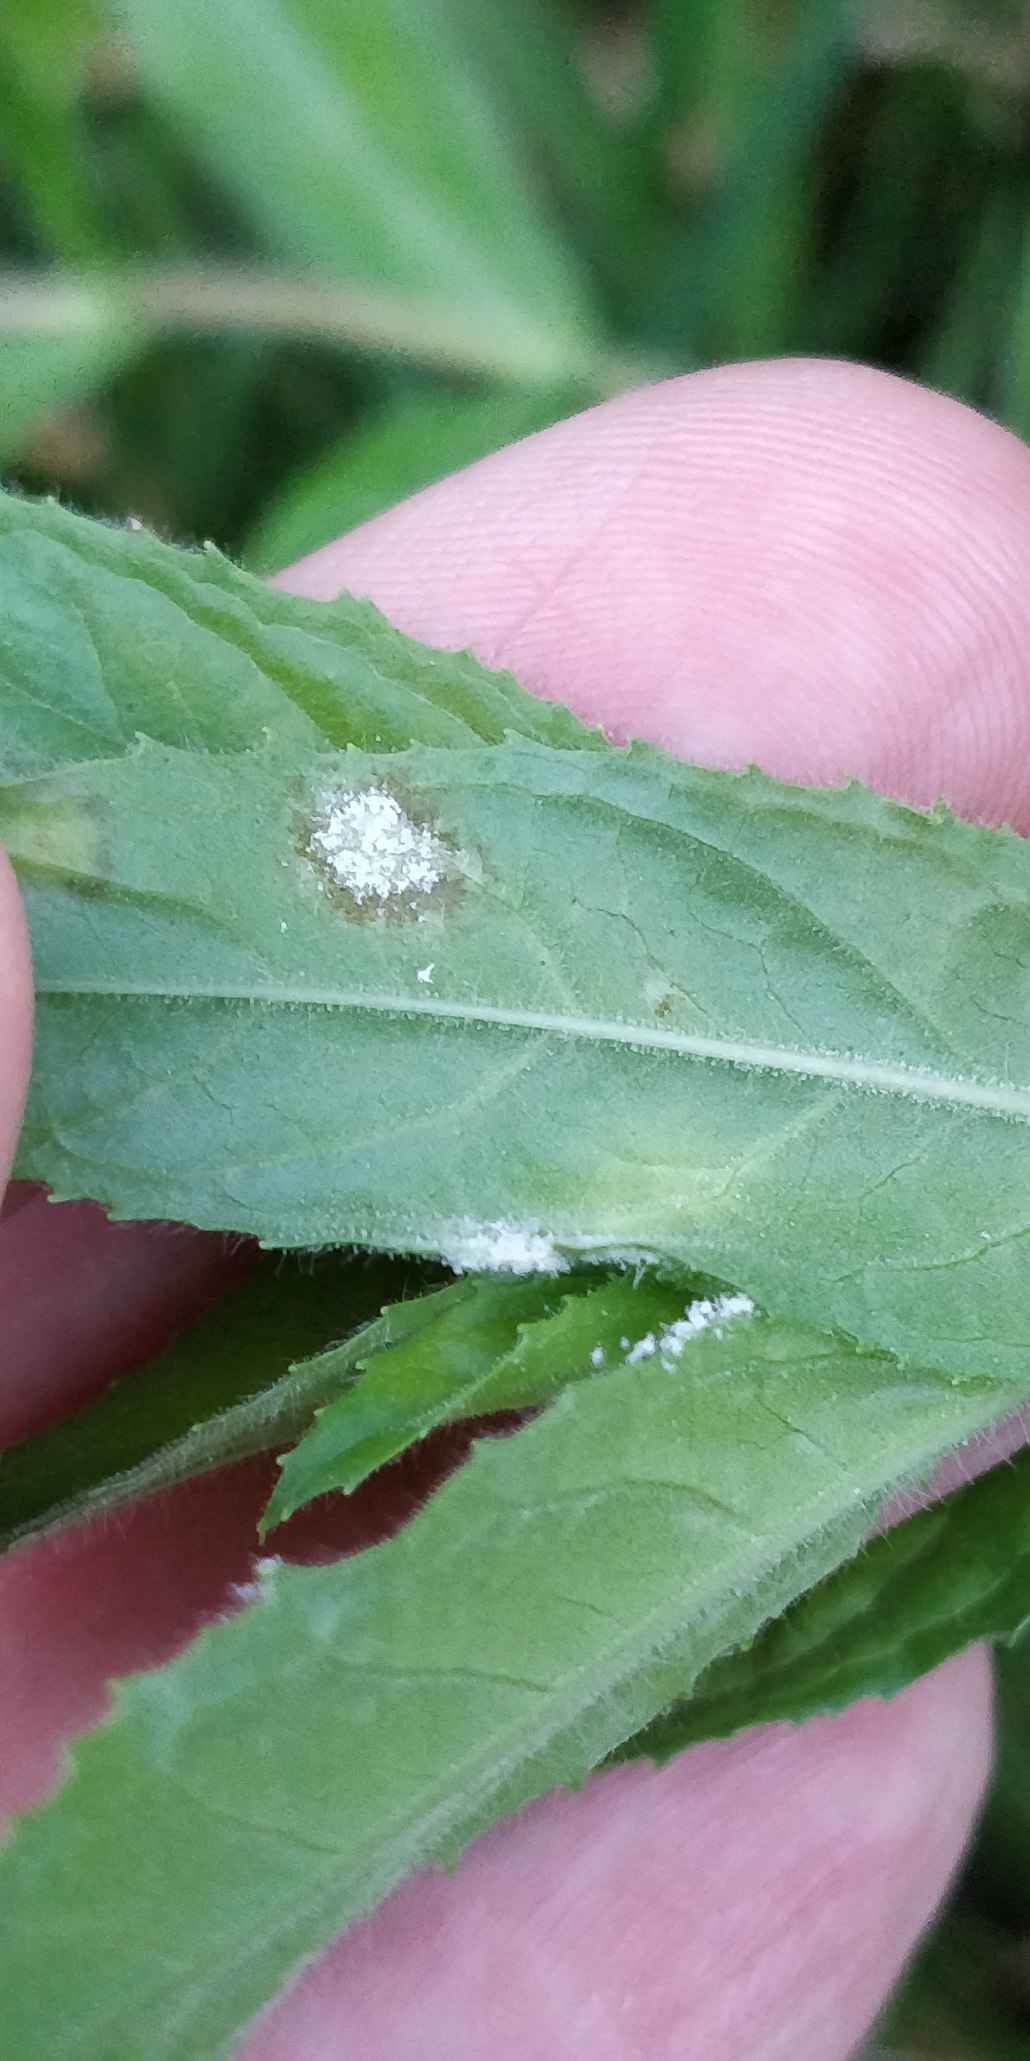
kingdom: Fungi
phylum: Ascomycota
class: Leotiomycetes
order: Helotiales
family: Erysiphaceae
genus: Podosphaera
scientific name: Podosphaera epilobii
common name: Dueurt-meldug
